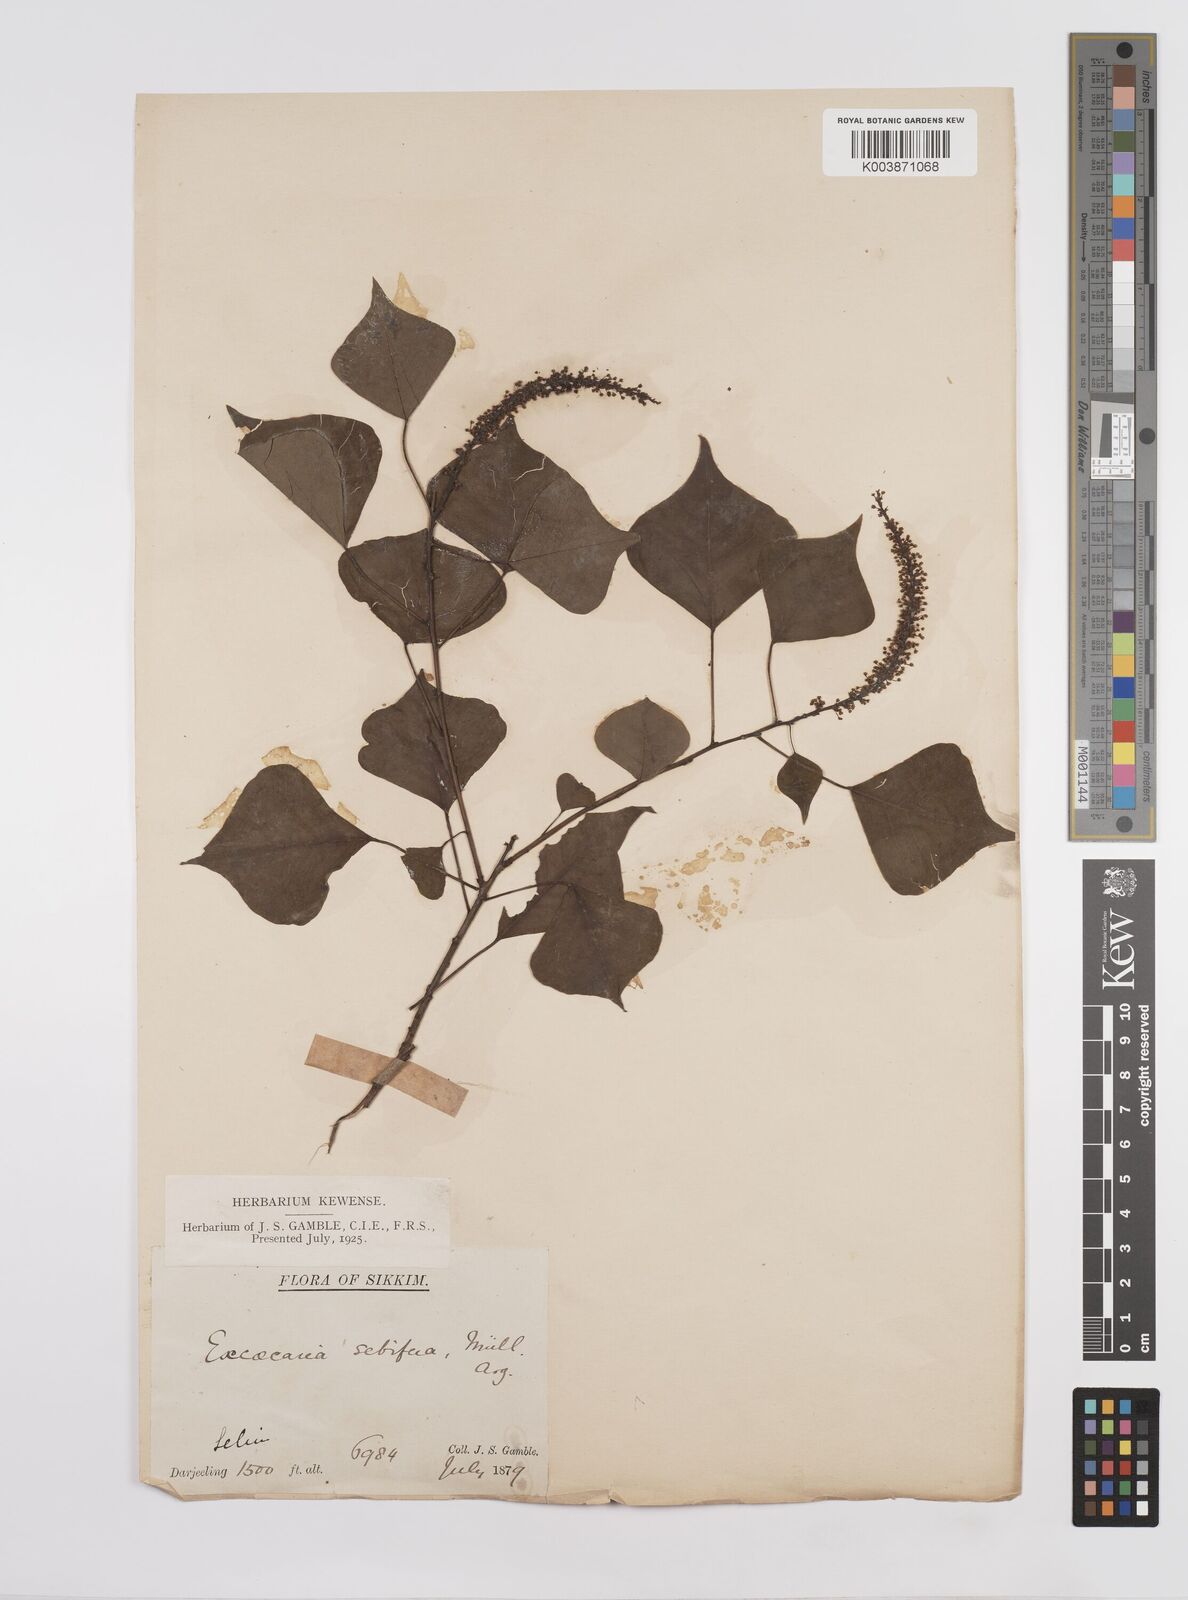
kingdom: Plantae
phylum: Tracheophyta
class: Magnoliopsida
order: Malpighiales
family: Euphorbiaceae
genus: Triadica
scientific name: Triadica sebifera
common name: Chinese tallow
